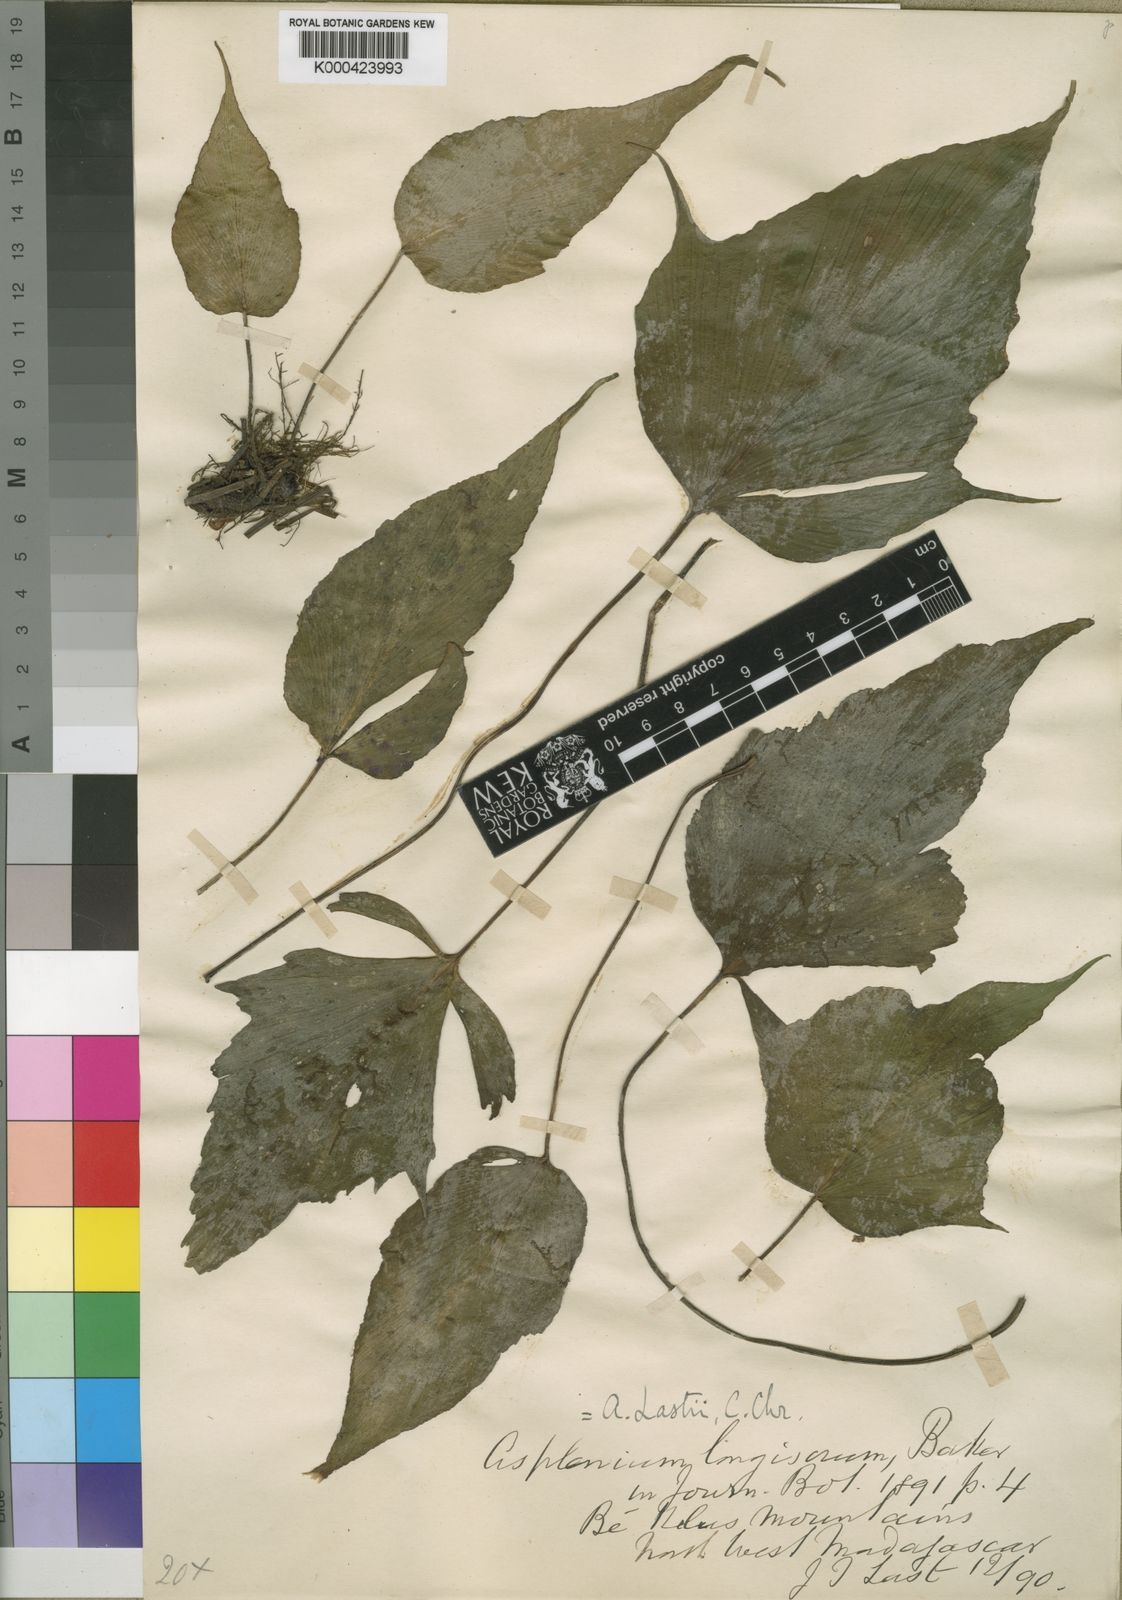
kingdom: Plantae
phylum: Tracheophyta
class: Polypodiopsida
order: Polypodiales
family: Aspleniaceae
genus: Asplenium
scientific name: Asplenium lastii
